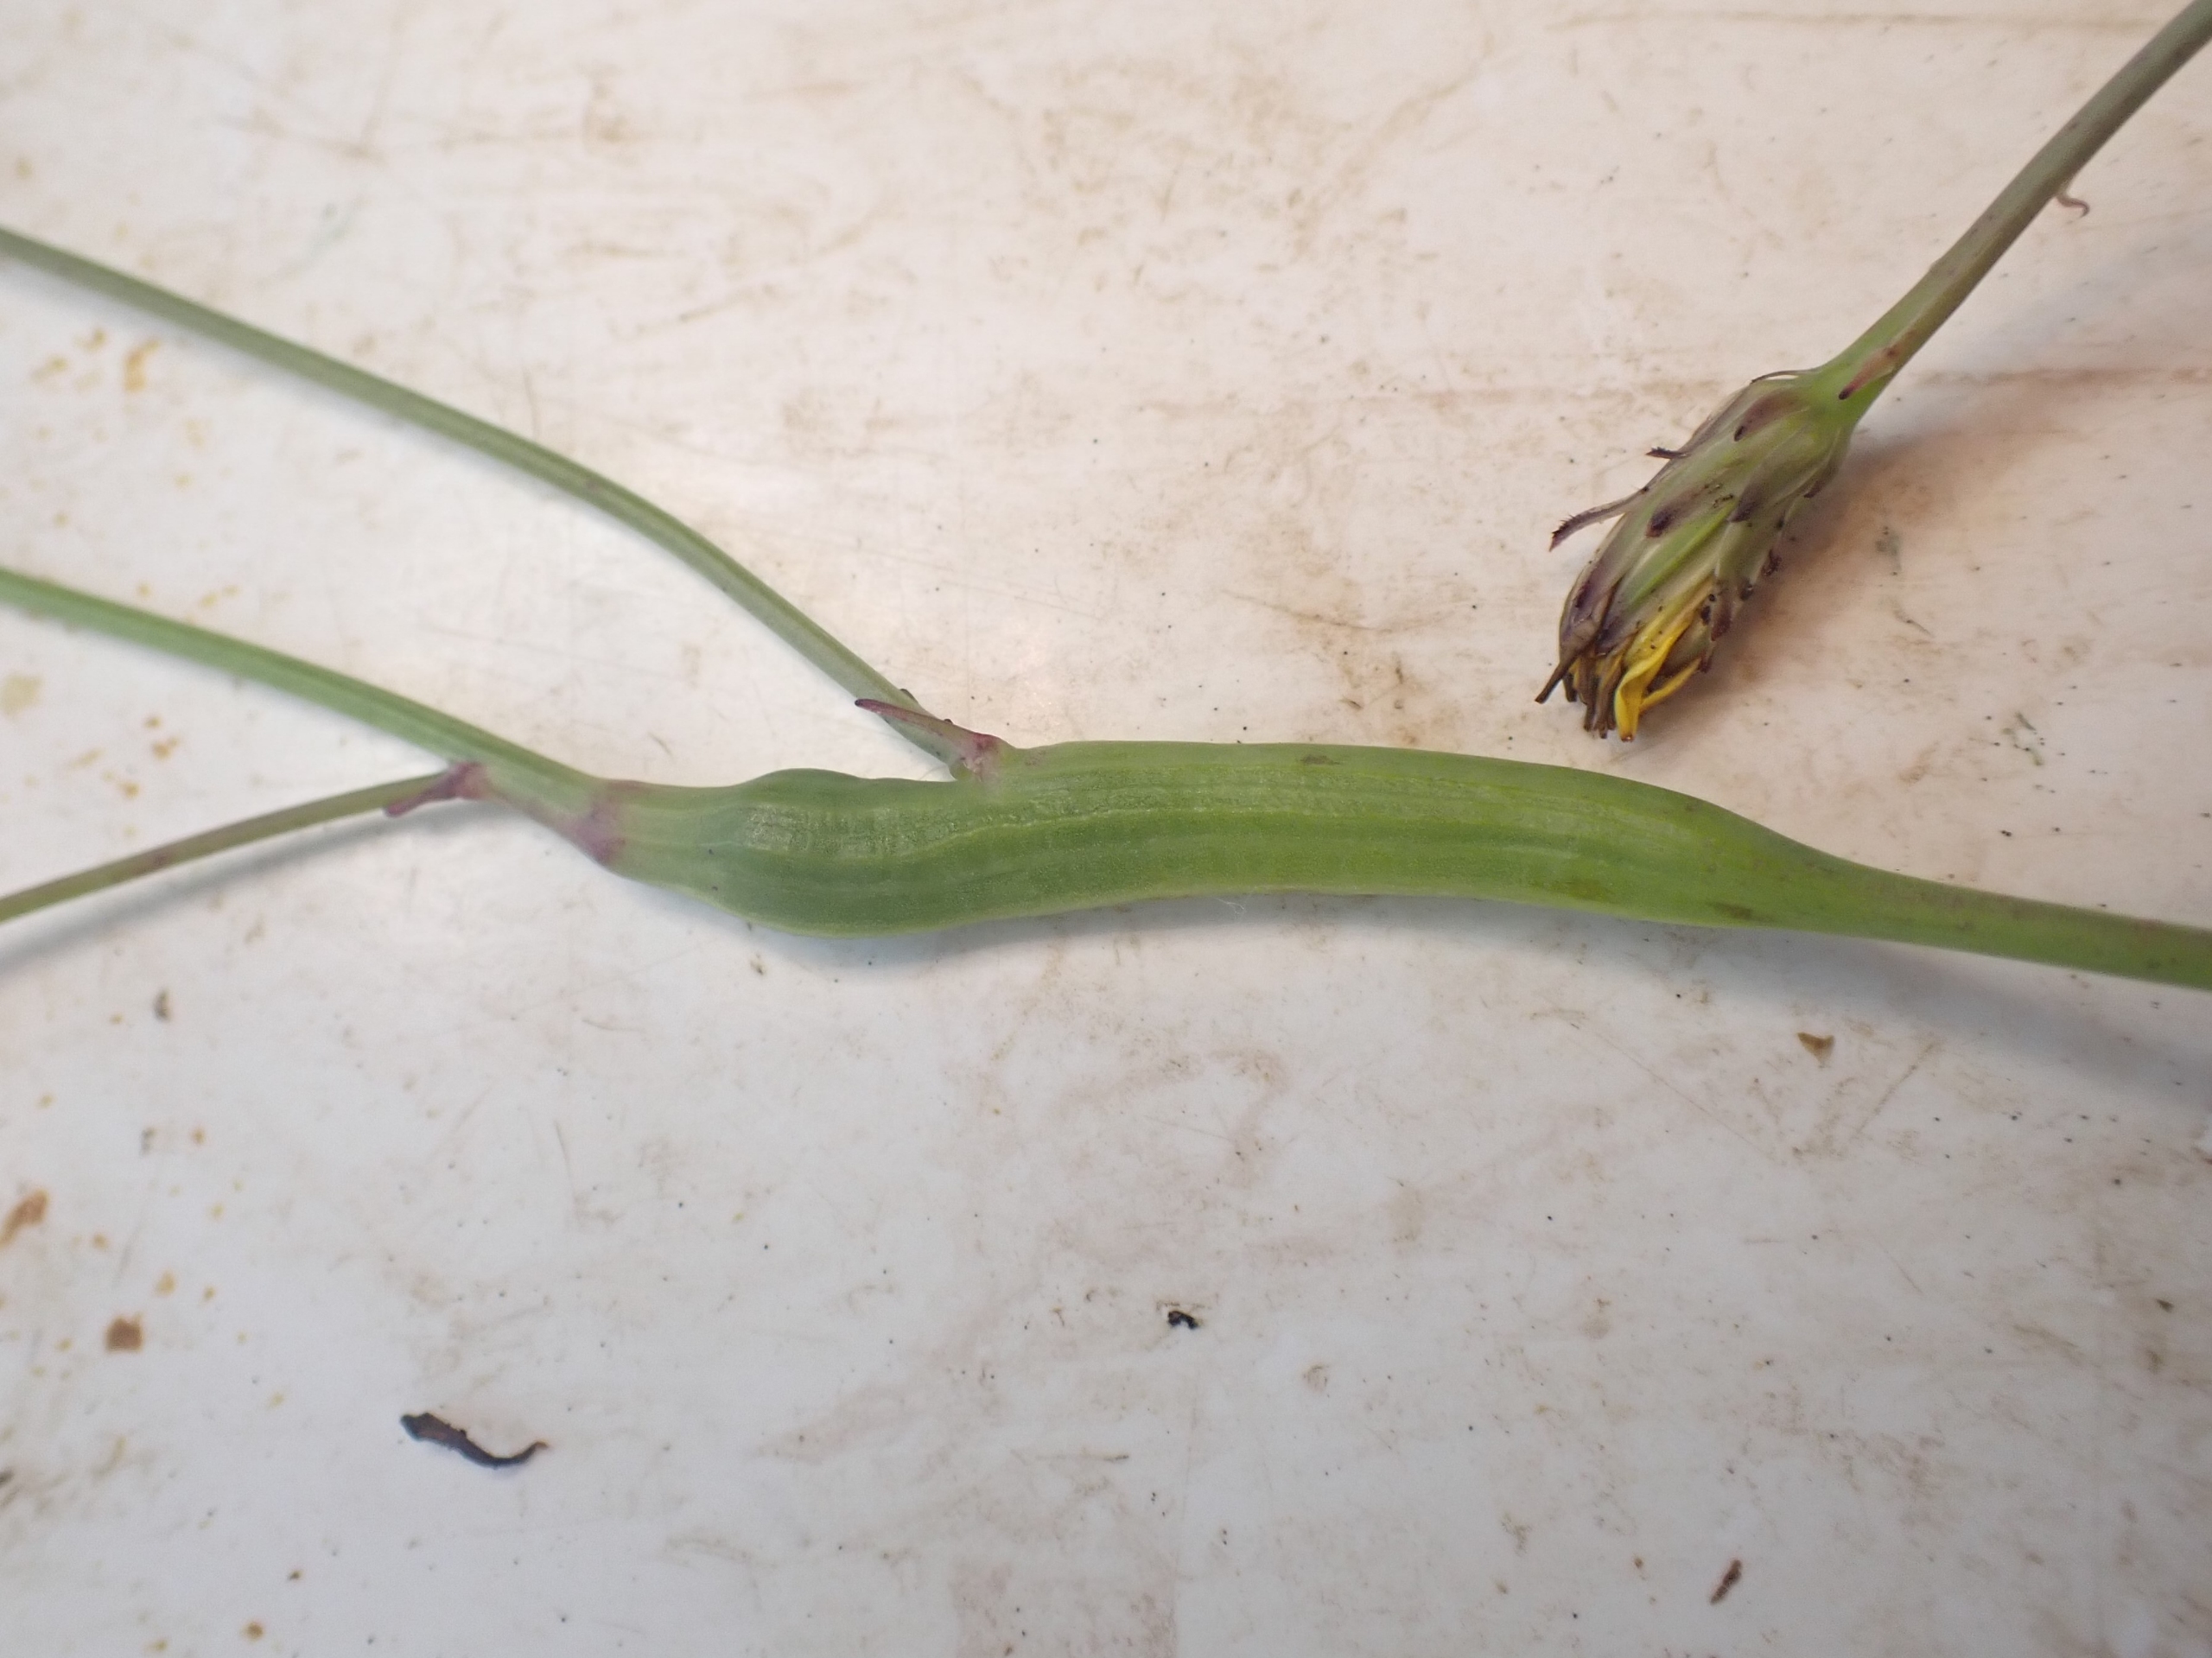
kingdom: Animalia
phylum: Arthropoda
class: Insecta
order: Hymenoptera
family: Cynipidae
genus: Phanacis
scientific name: Phanacis hypochoeridis
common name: Kongepengalhveps
